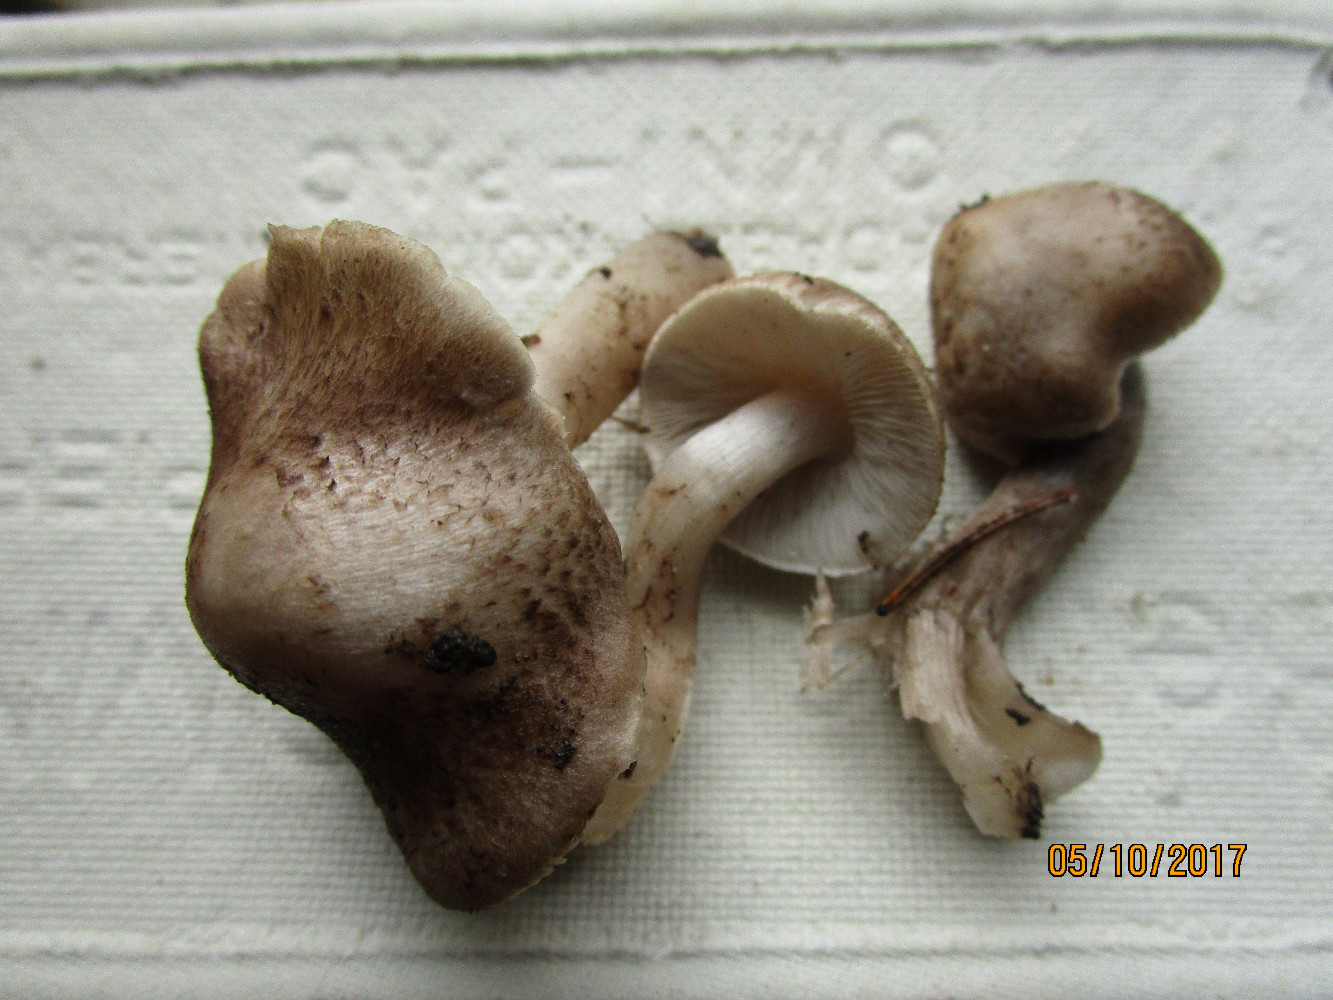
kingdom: Fungi
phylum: Basidiomycota
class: Agaricomycetes
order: Agaricales
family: Tricholomataceae
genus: Tricholoma
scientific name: Tricholoma argyraceum
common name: slør-ridderhat
